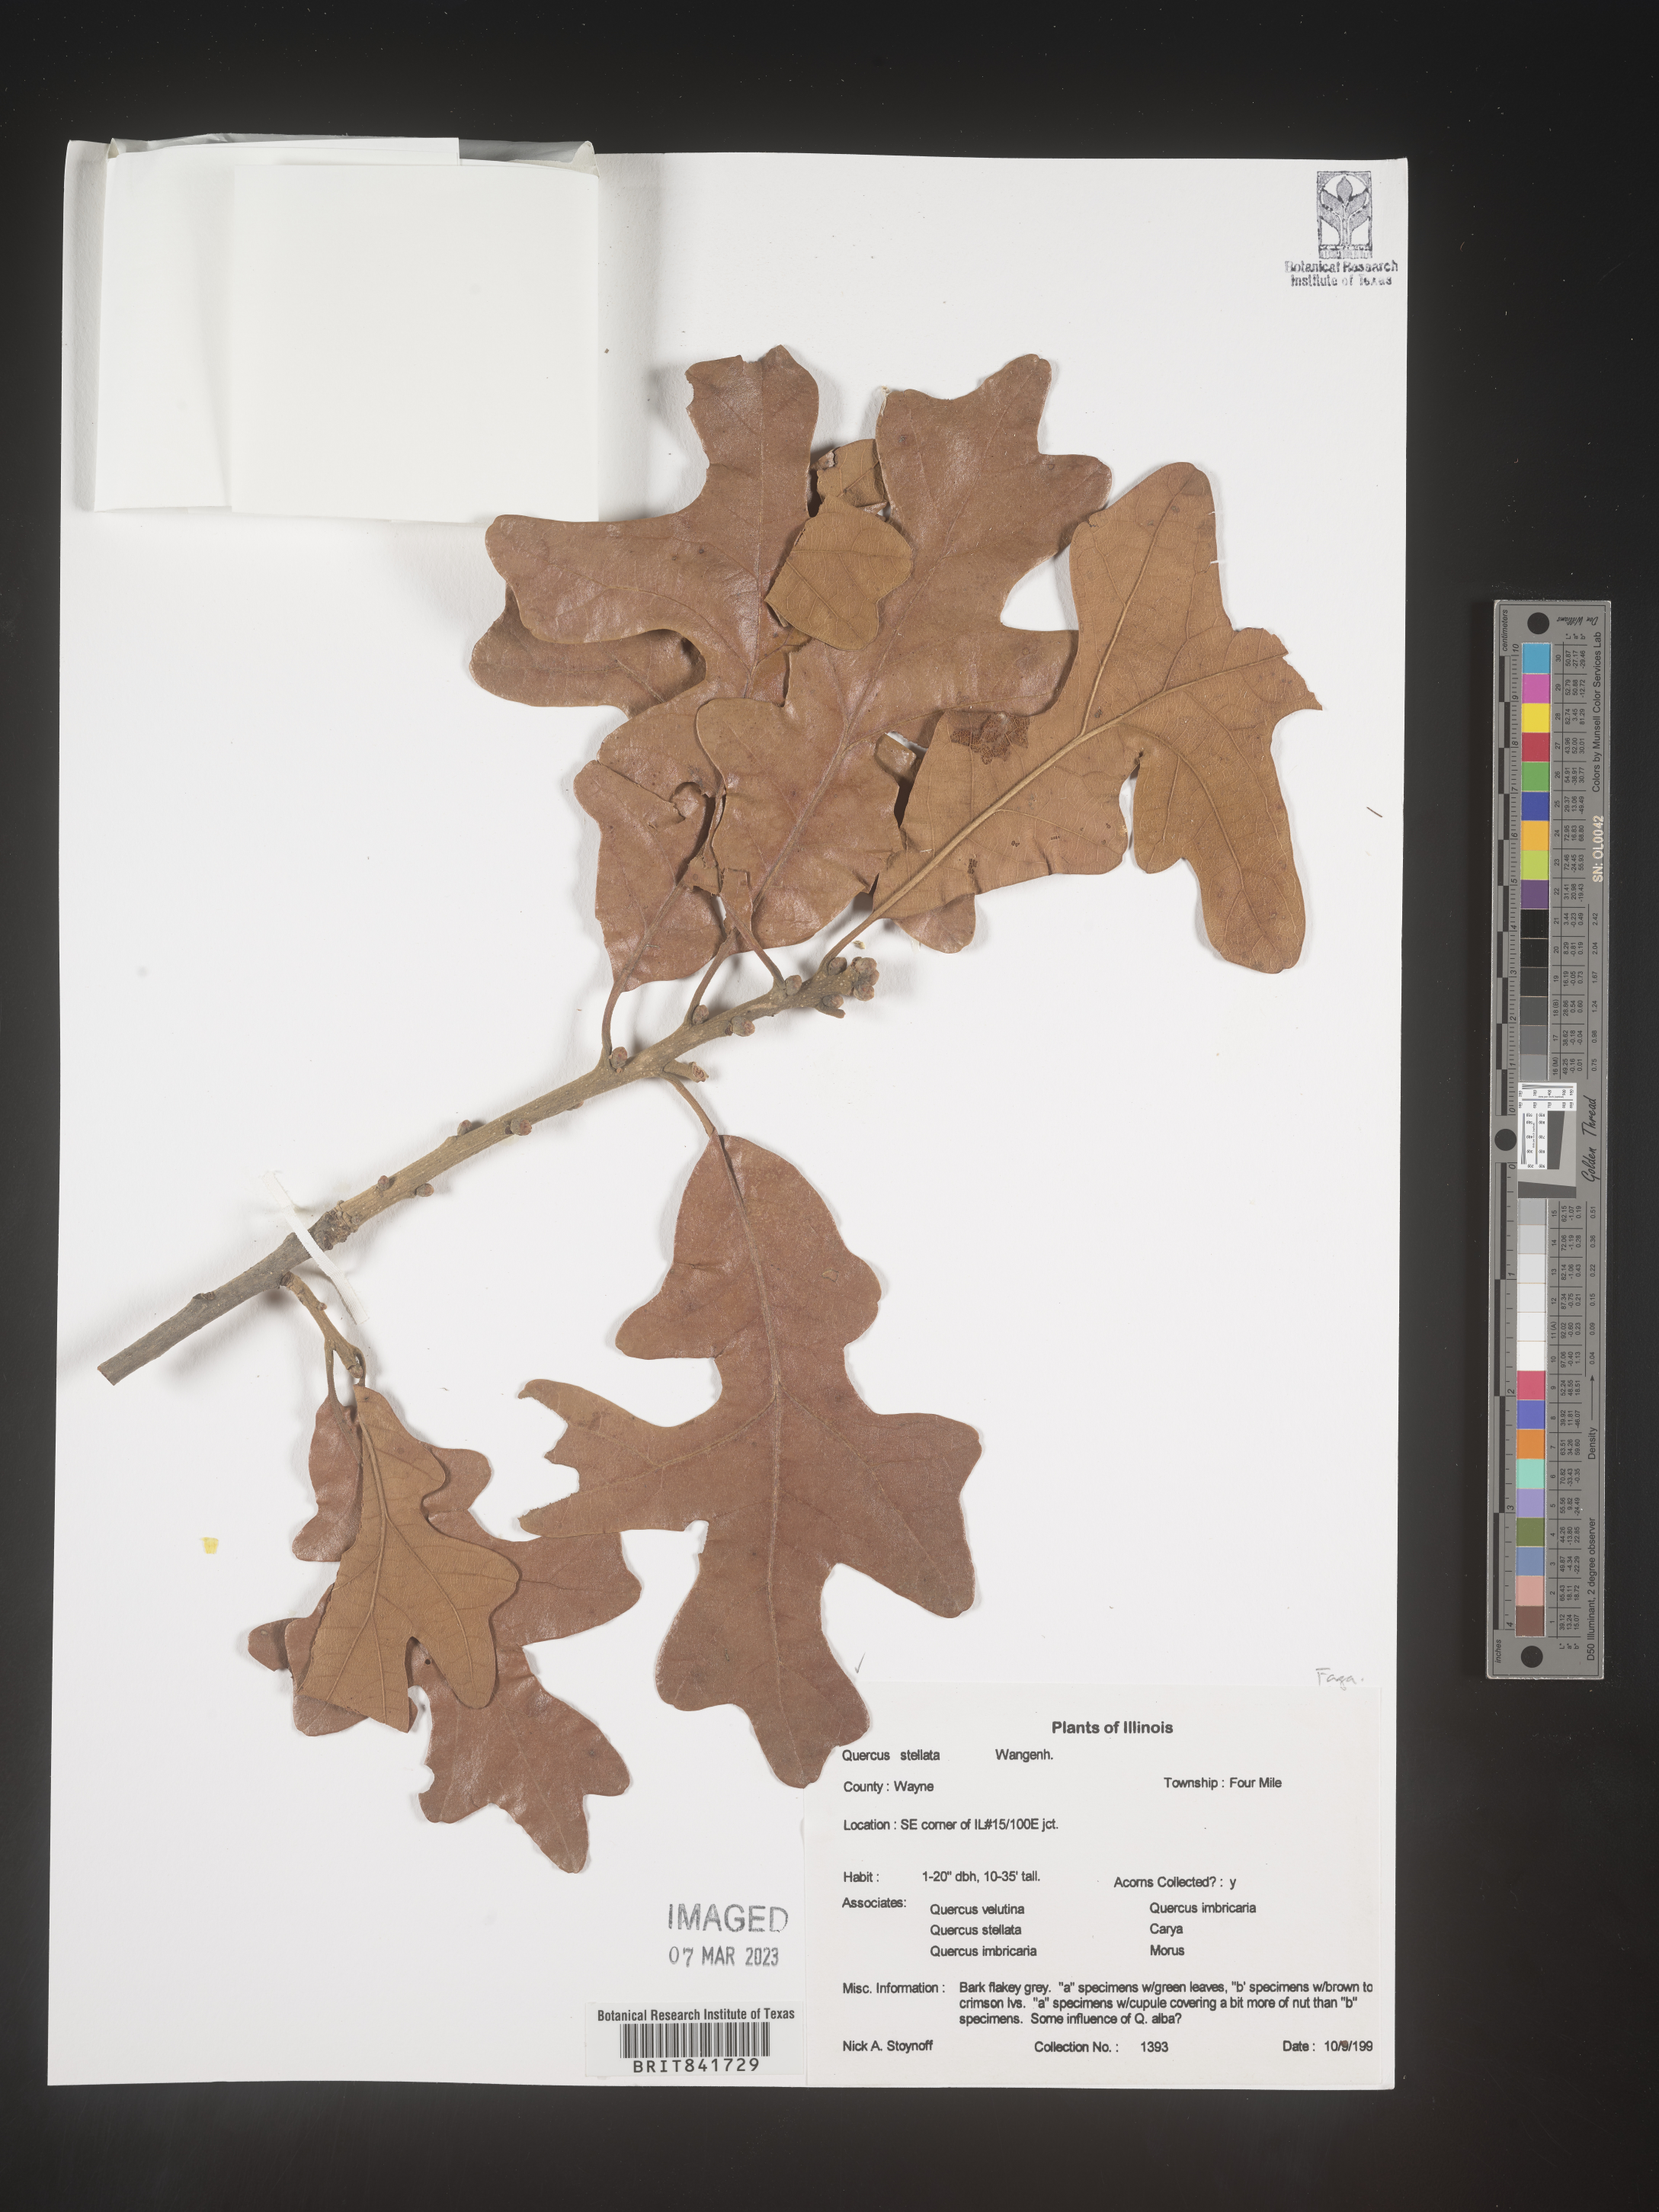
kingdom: Plantae
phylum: Tracheophyta
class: Magnoliopsida
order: Fagales
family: Fagaceae
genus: Quercus
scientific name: Quercus stellata
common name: Post oak
